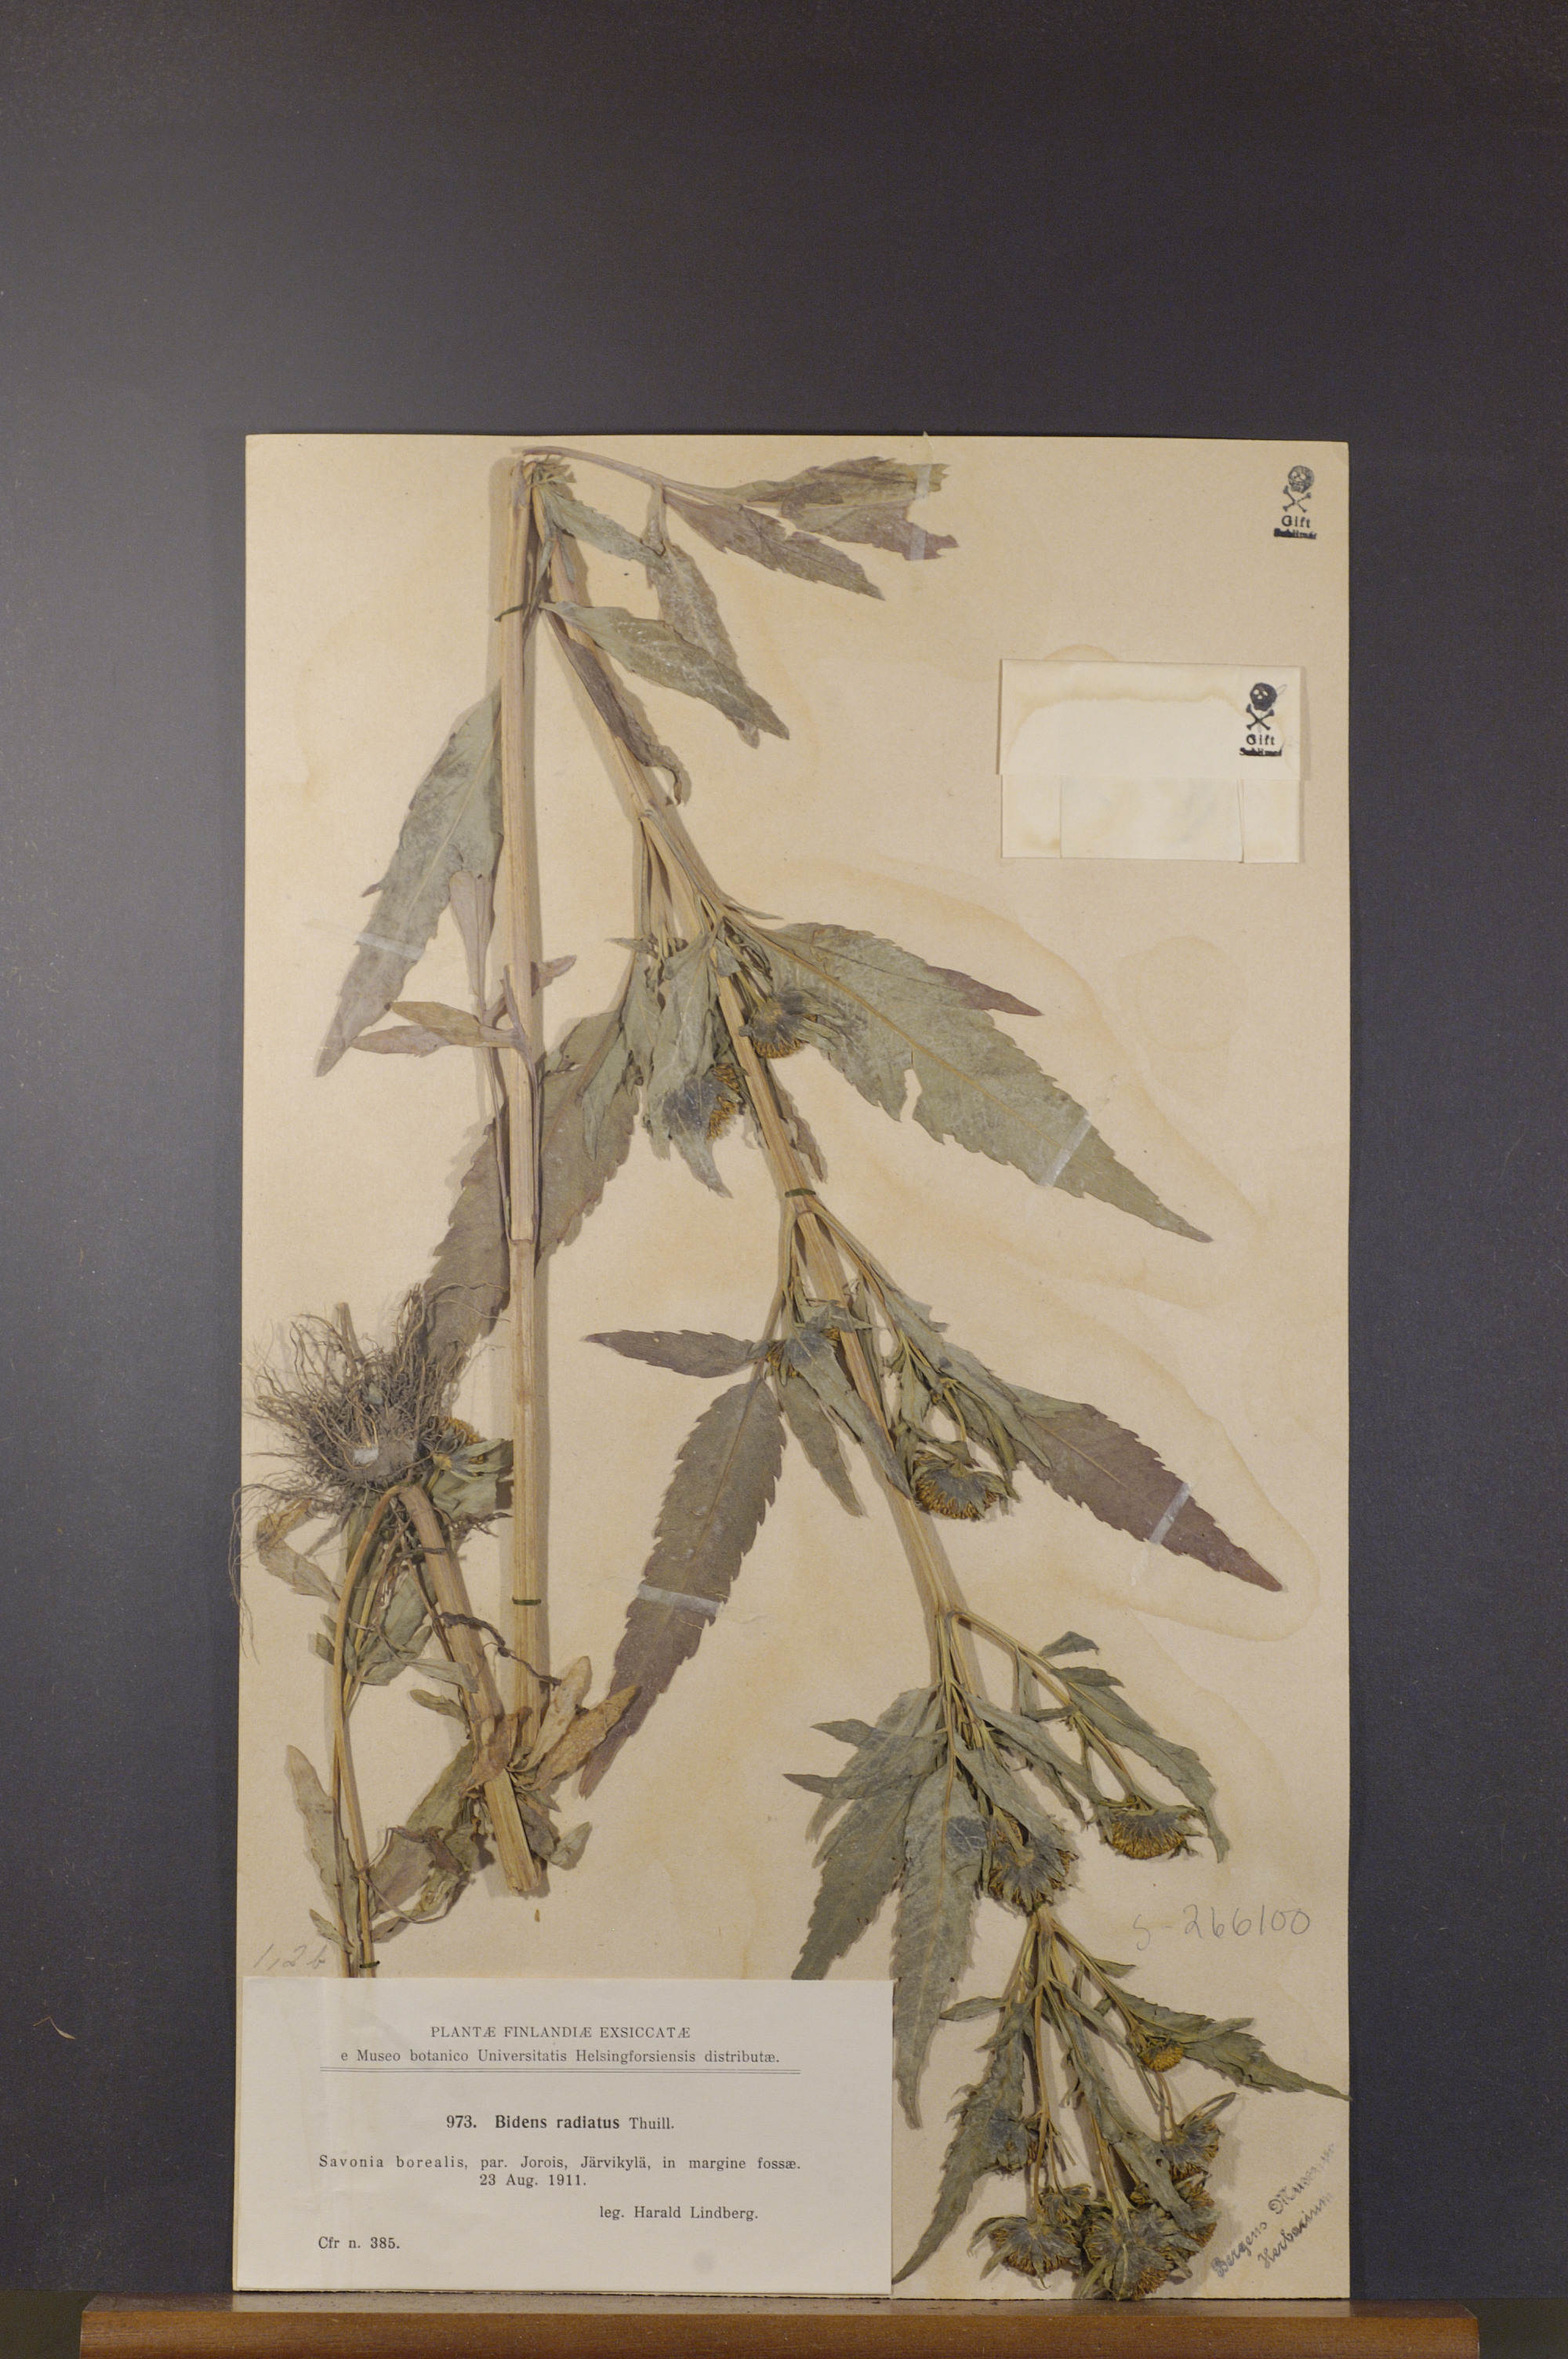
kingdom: Plantae
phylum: Tracheophyta
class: Magnoliopsida
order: Asterales
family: Asteraceae
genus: Bidens
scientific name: Bidens radiata
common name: Radiating bur-marigold
